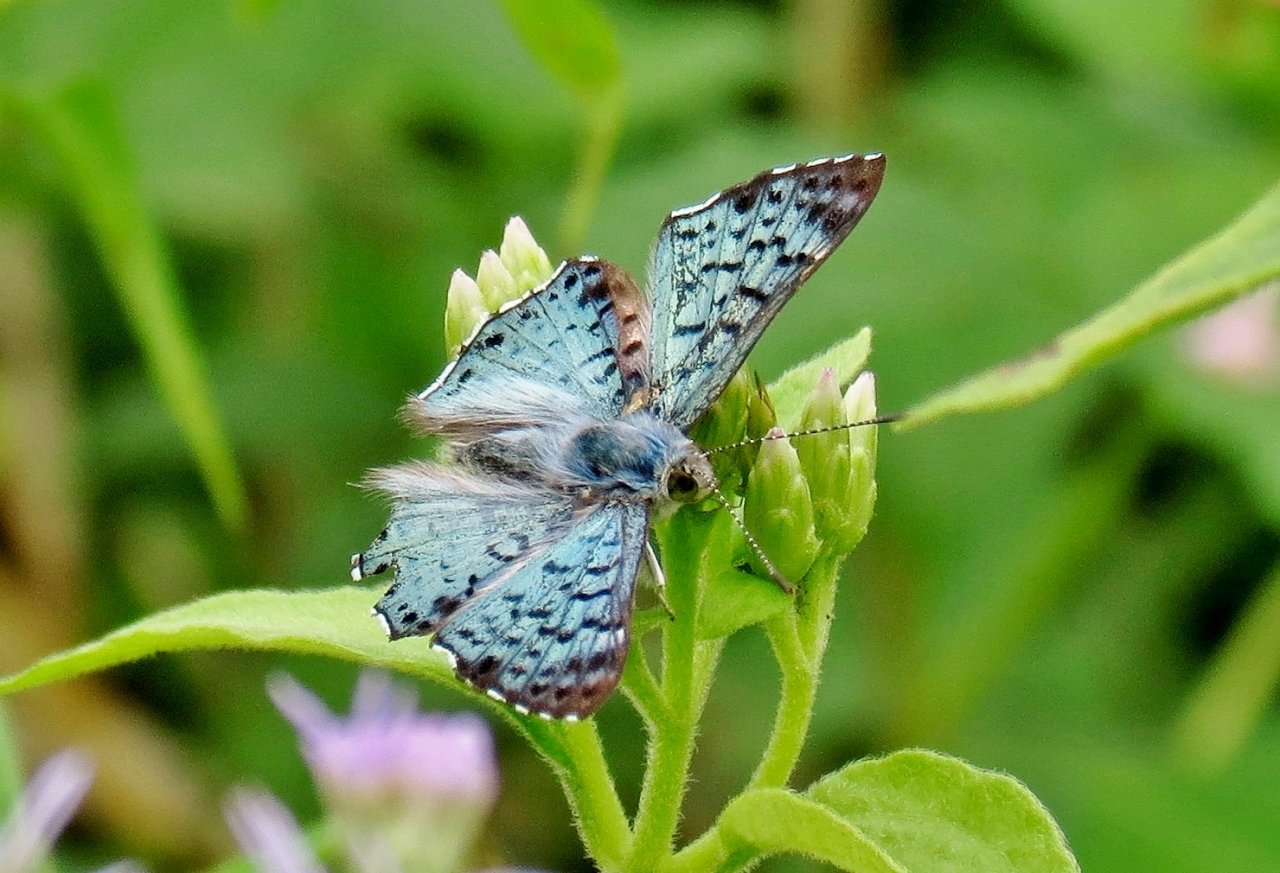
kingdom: Animalia
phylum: Arthropoda
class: Insecta
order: Lepidoptera
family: Riodinidae
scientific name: Riodinidae
